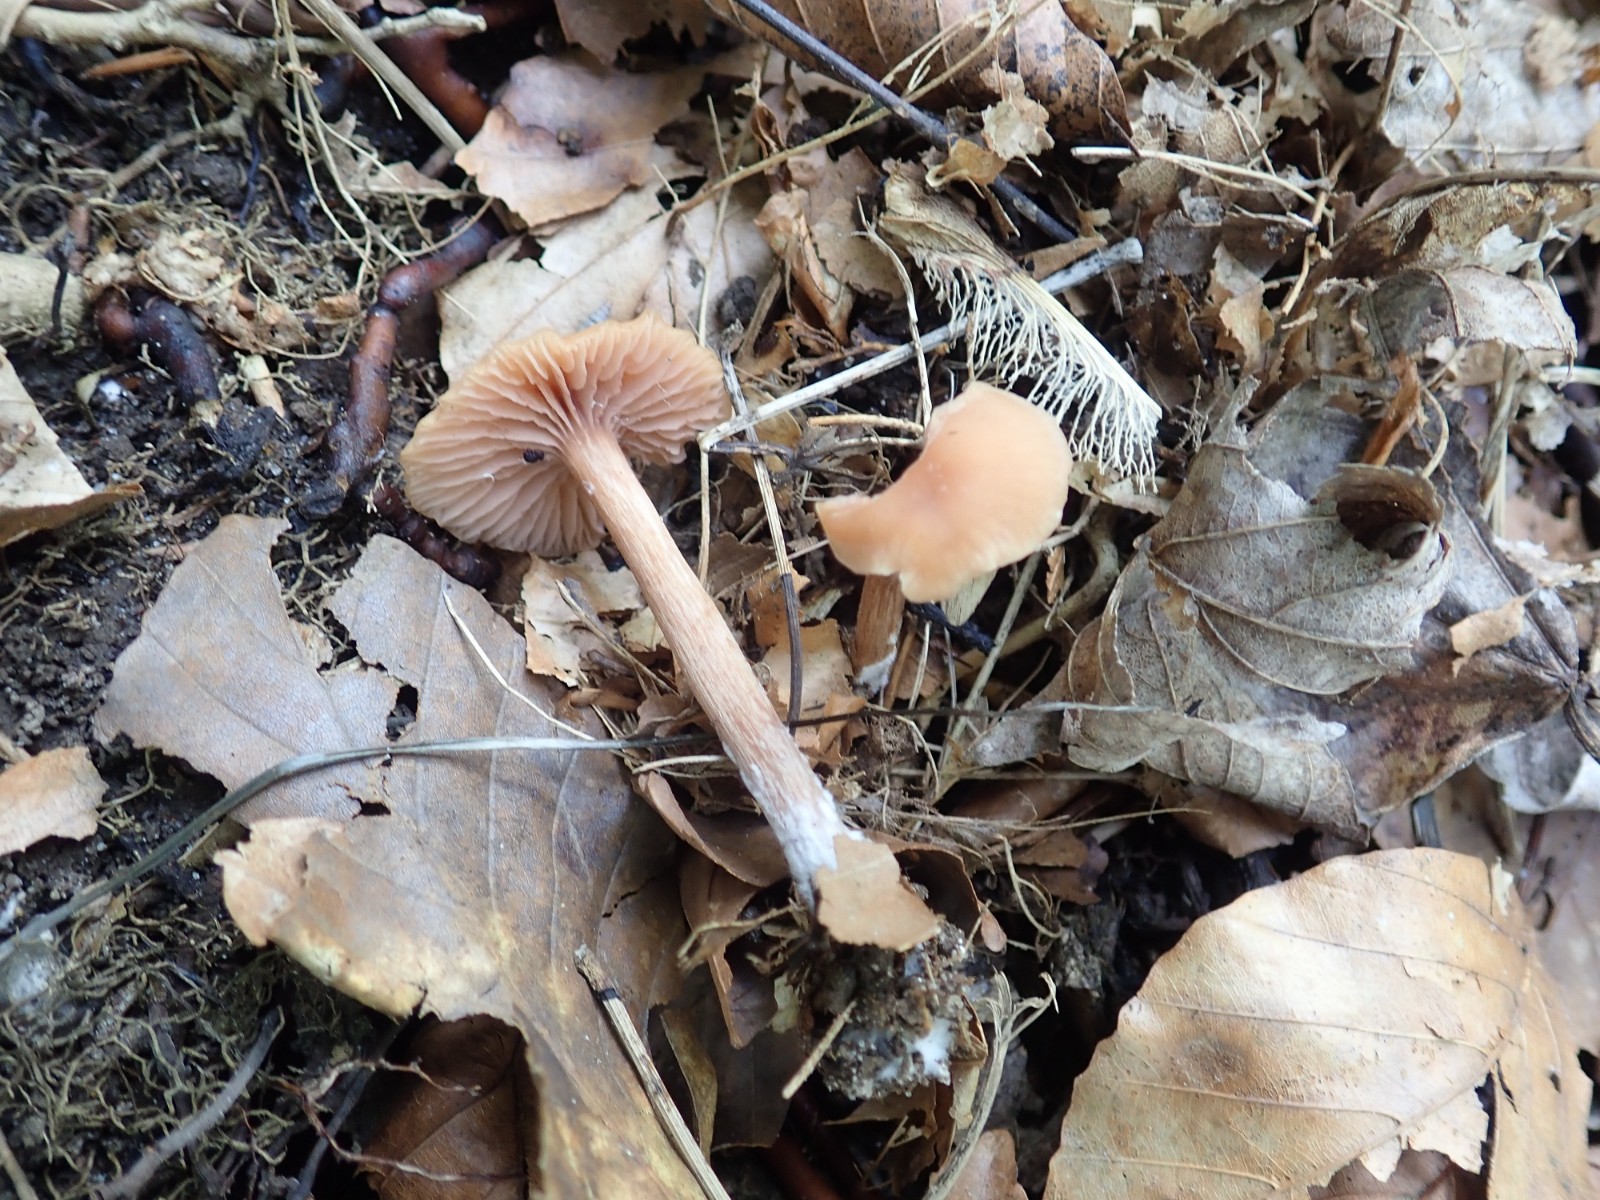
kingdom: Fungi
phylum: Basidiomycota
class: Agaricomycetes
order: Agaricales
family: Hydnangiaceae
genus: Laccaria
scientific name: Laccaria laccata
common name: rød ametysthat
